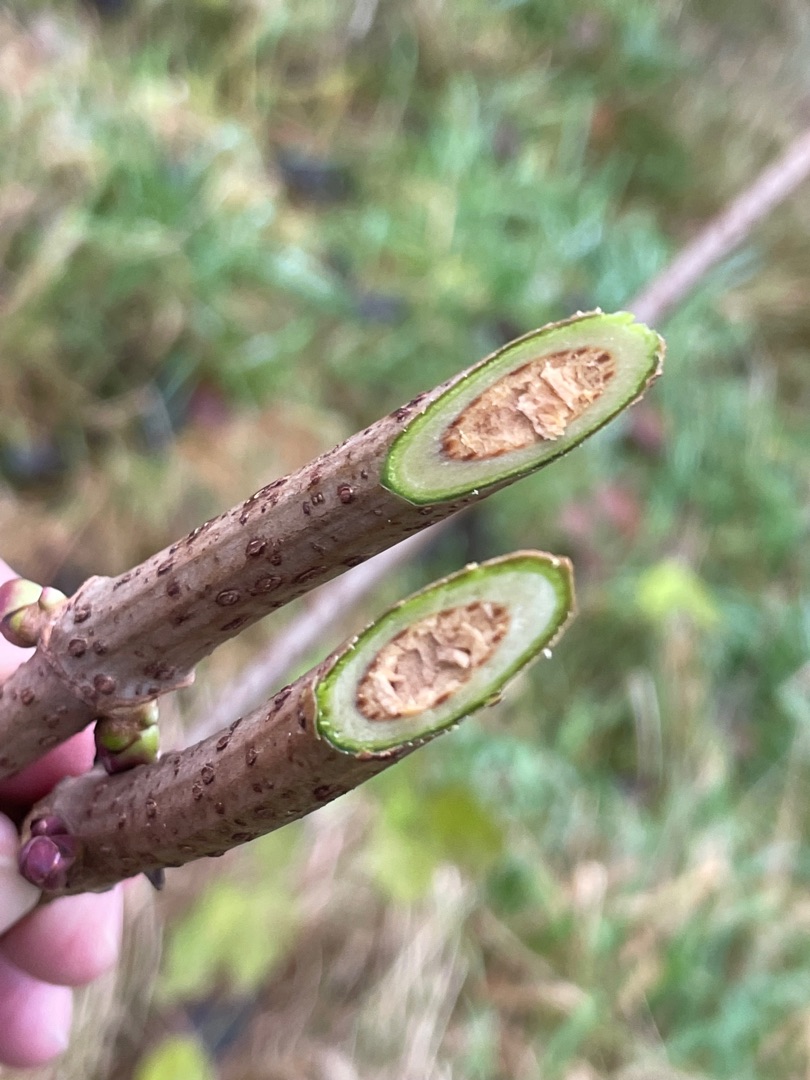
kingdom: Plantae
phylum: Tracheophyta
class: Magnoliopsida
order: Dipsacales
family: Viburnaceae
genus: Sambucus
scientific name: Sambucus racemosa
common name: Drue-hyld
